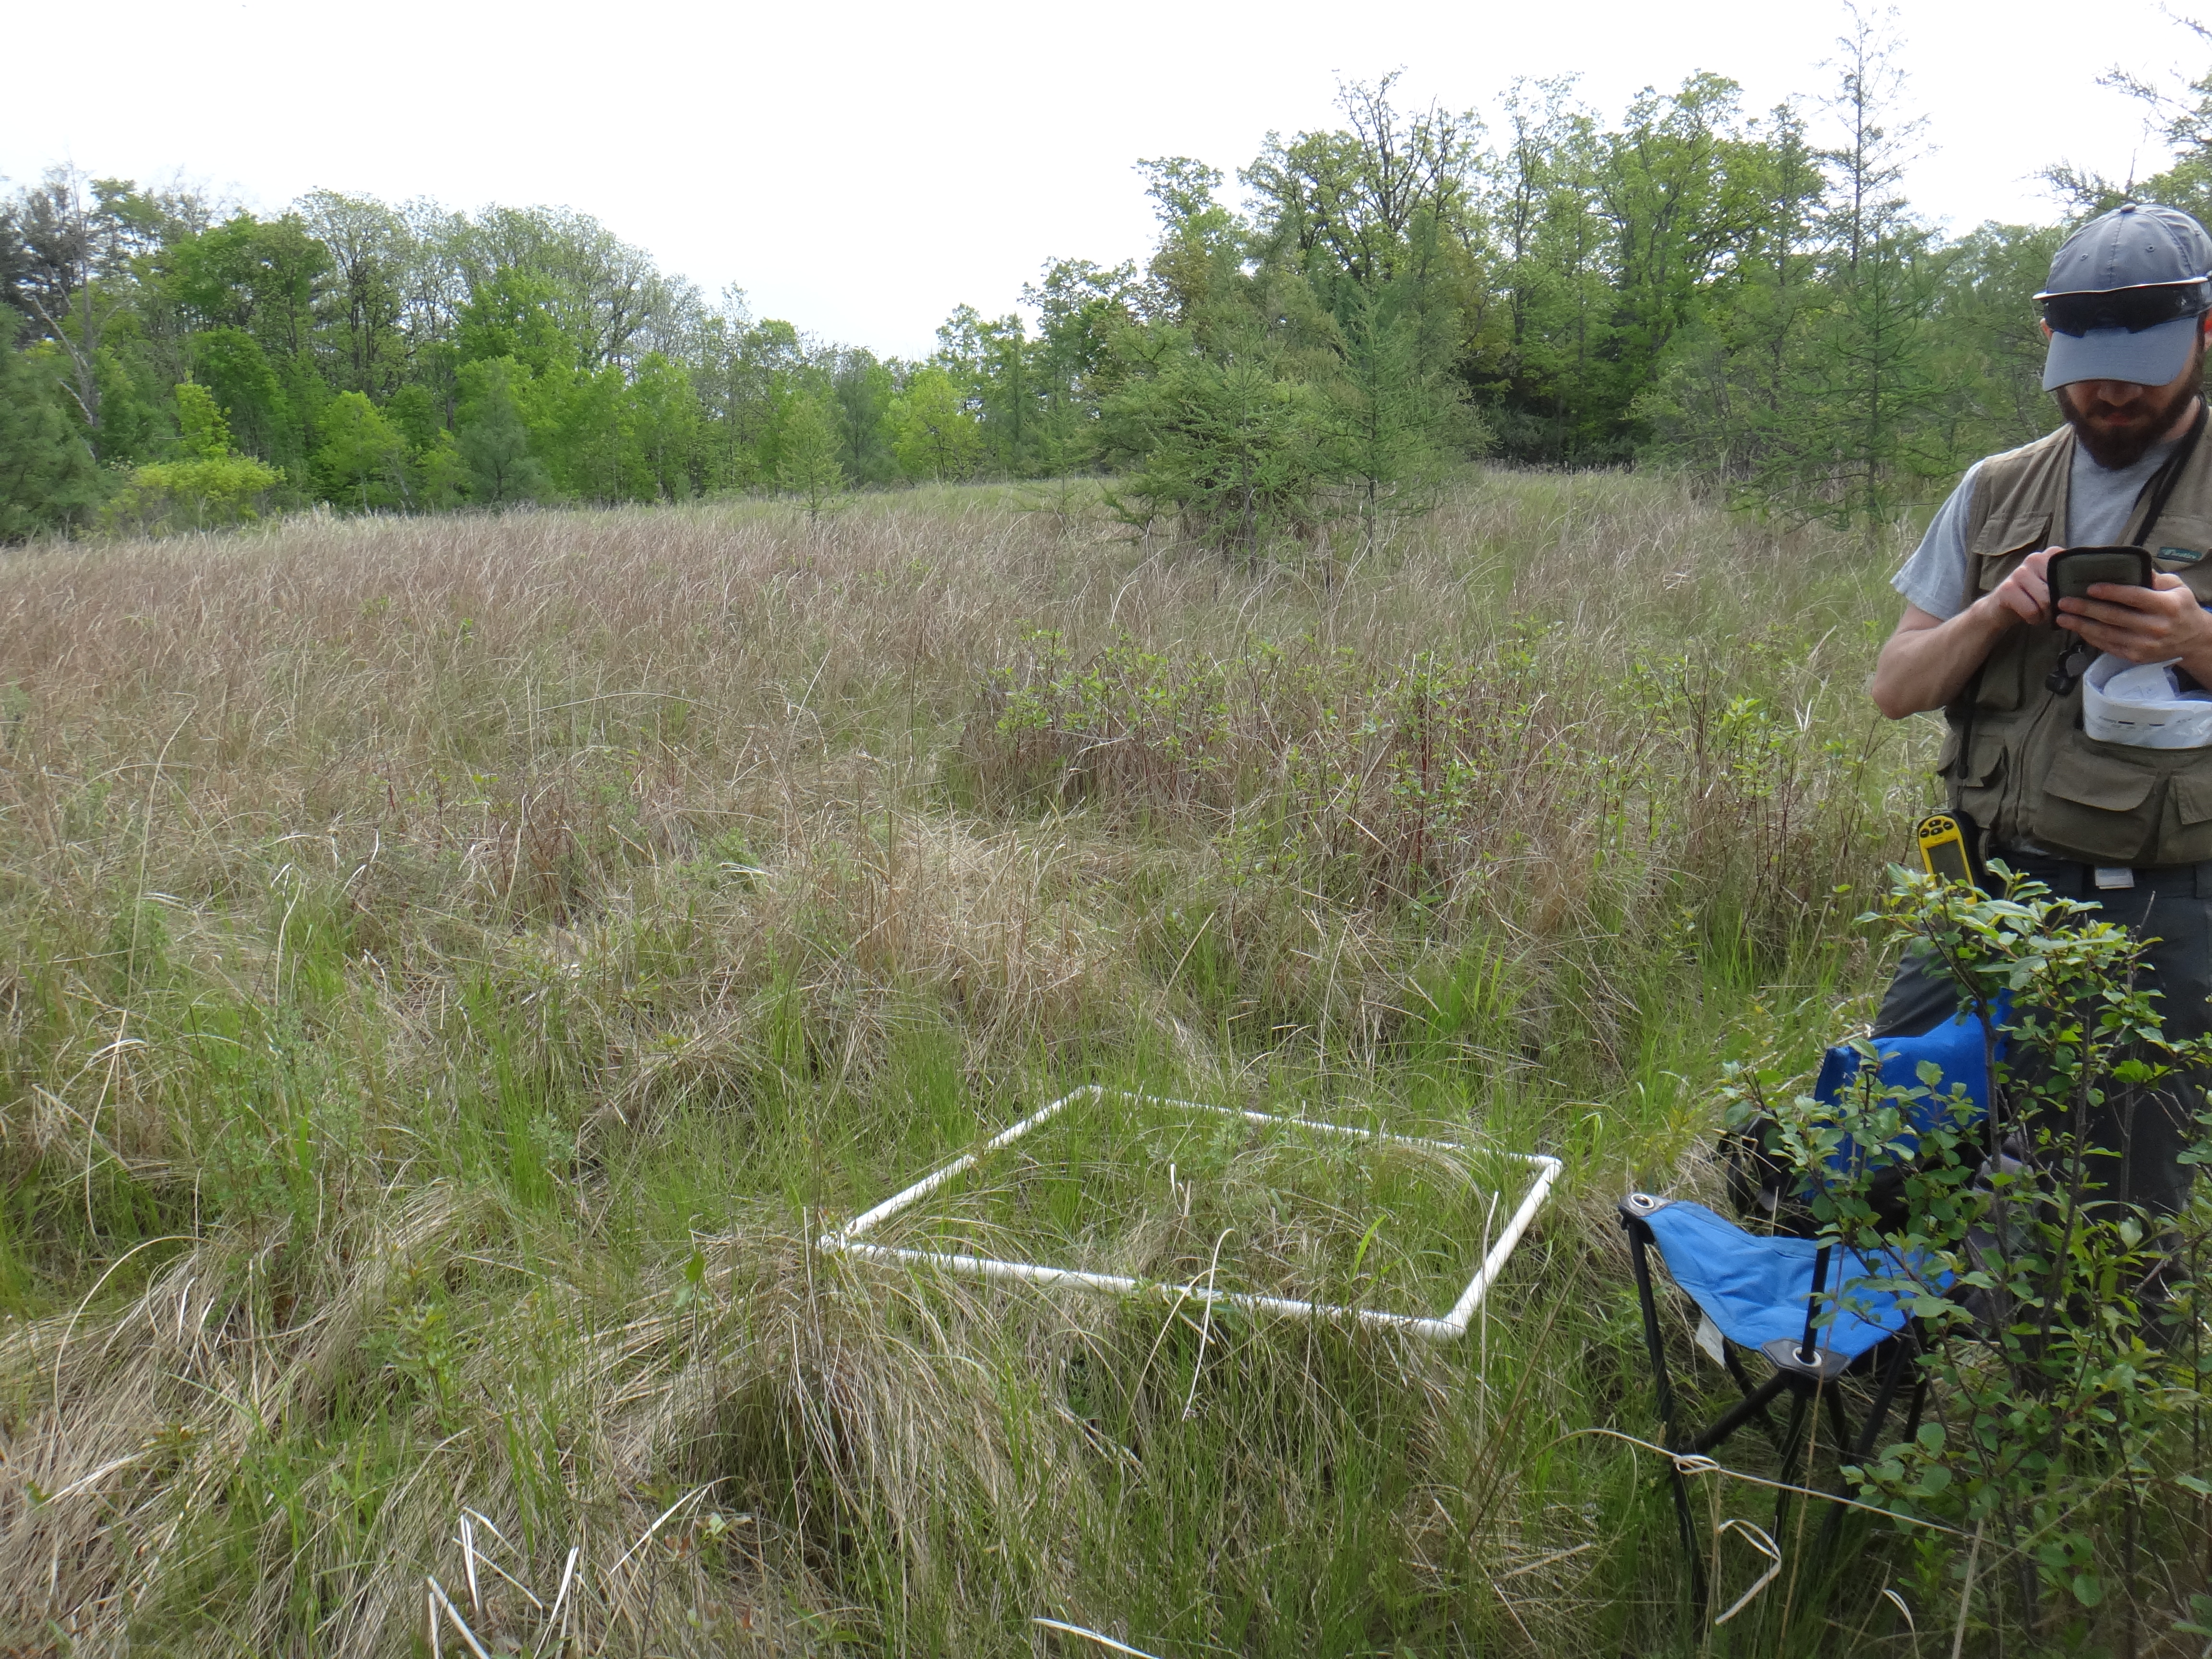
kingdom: Plantae
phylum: Tracheophyta
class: Liliopsida
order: Poales
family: Poaceae
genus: Agrostis
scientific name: Agrostis gigantea
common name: Black bent
